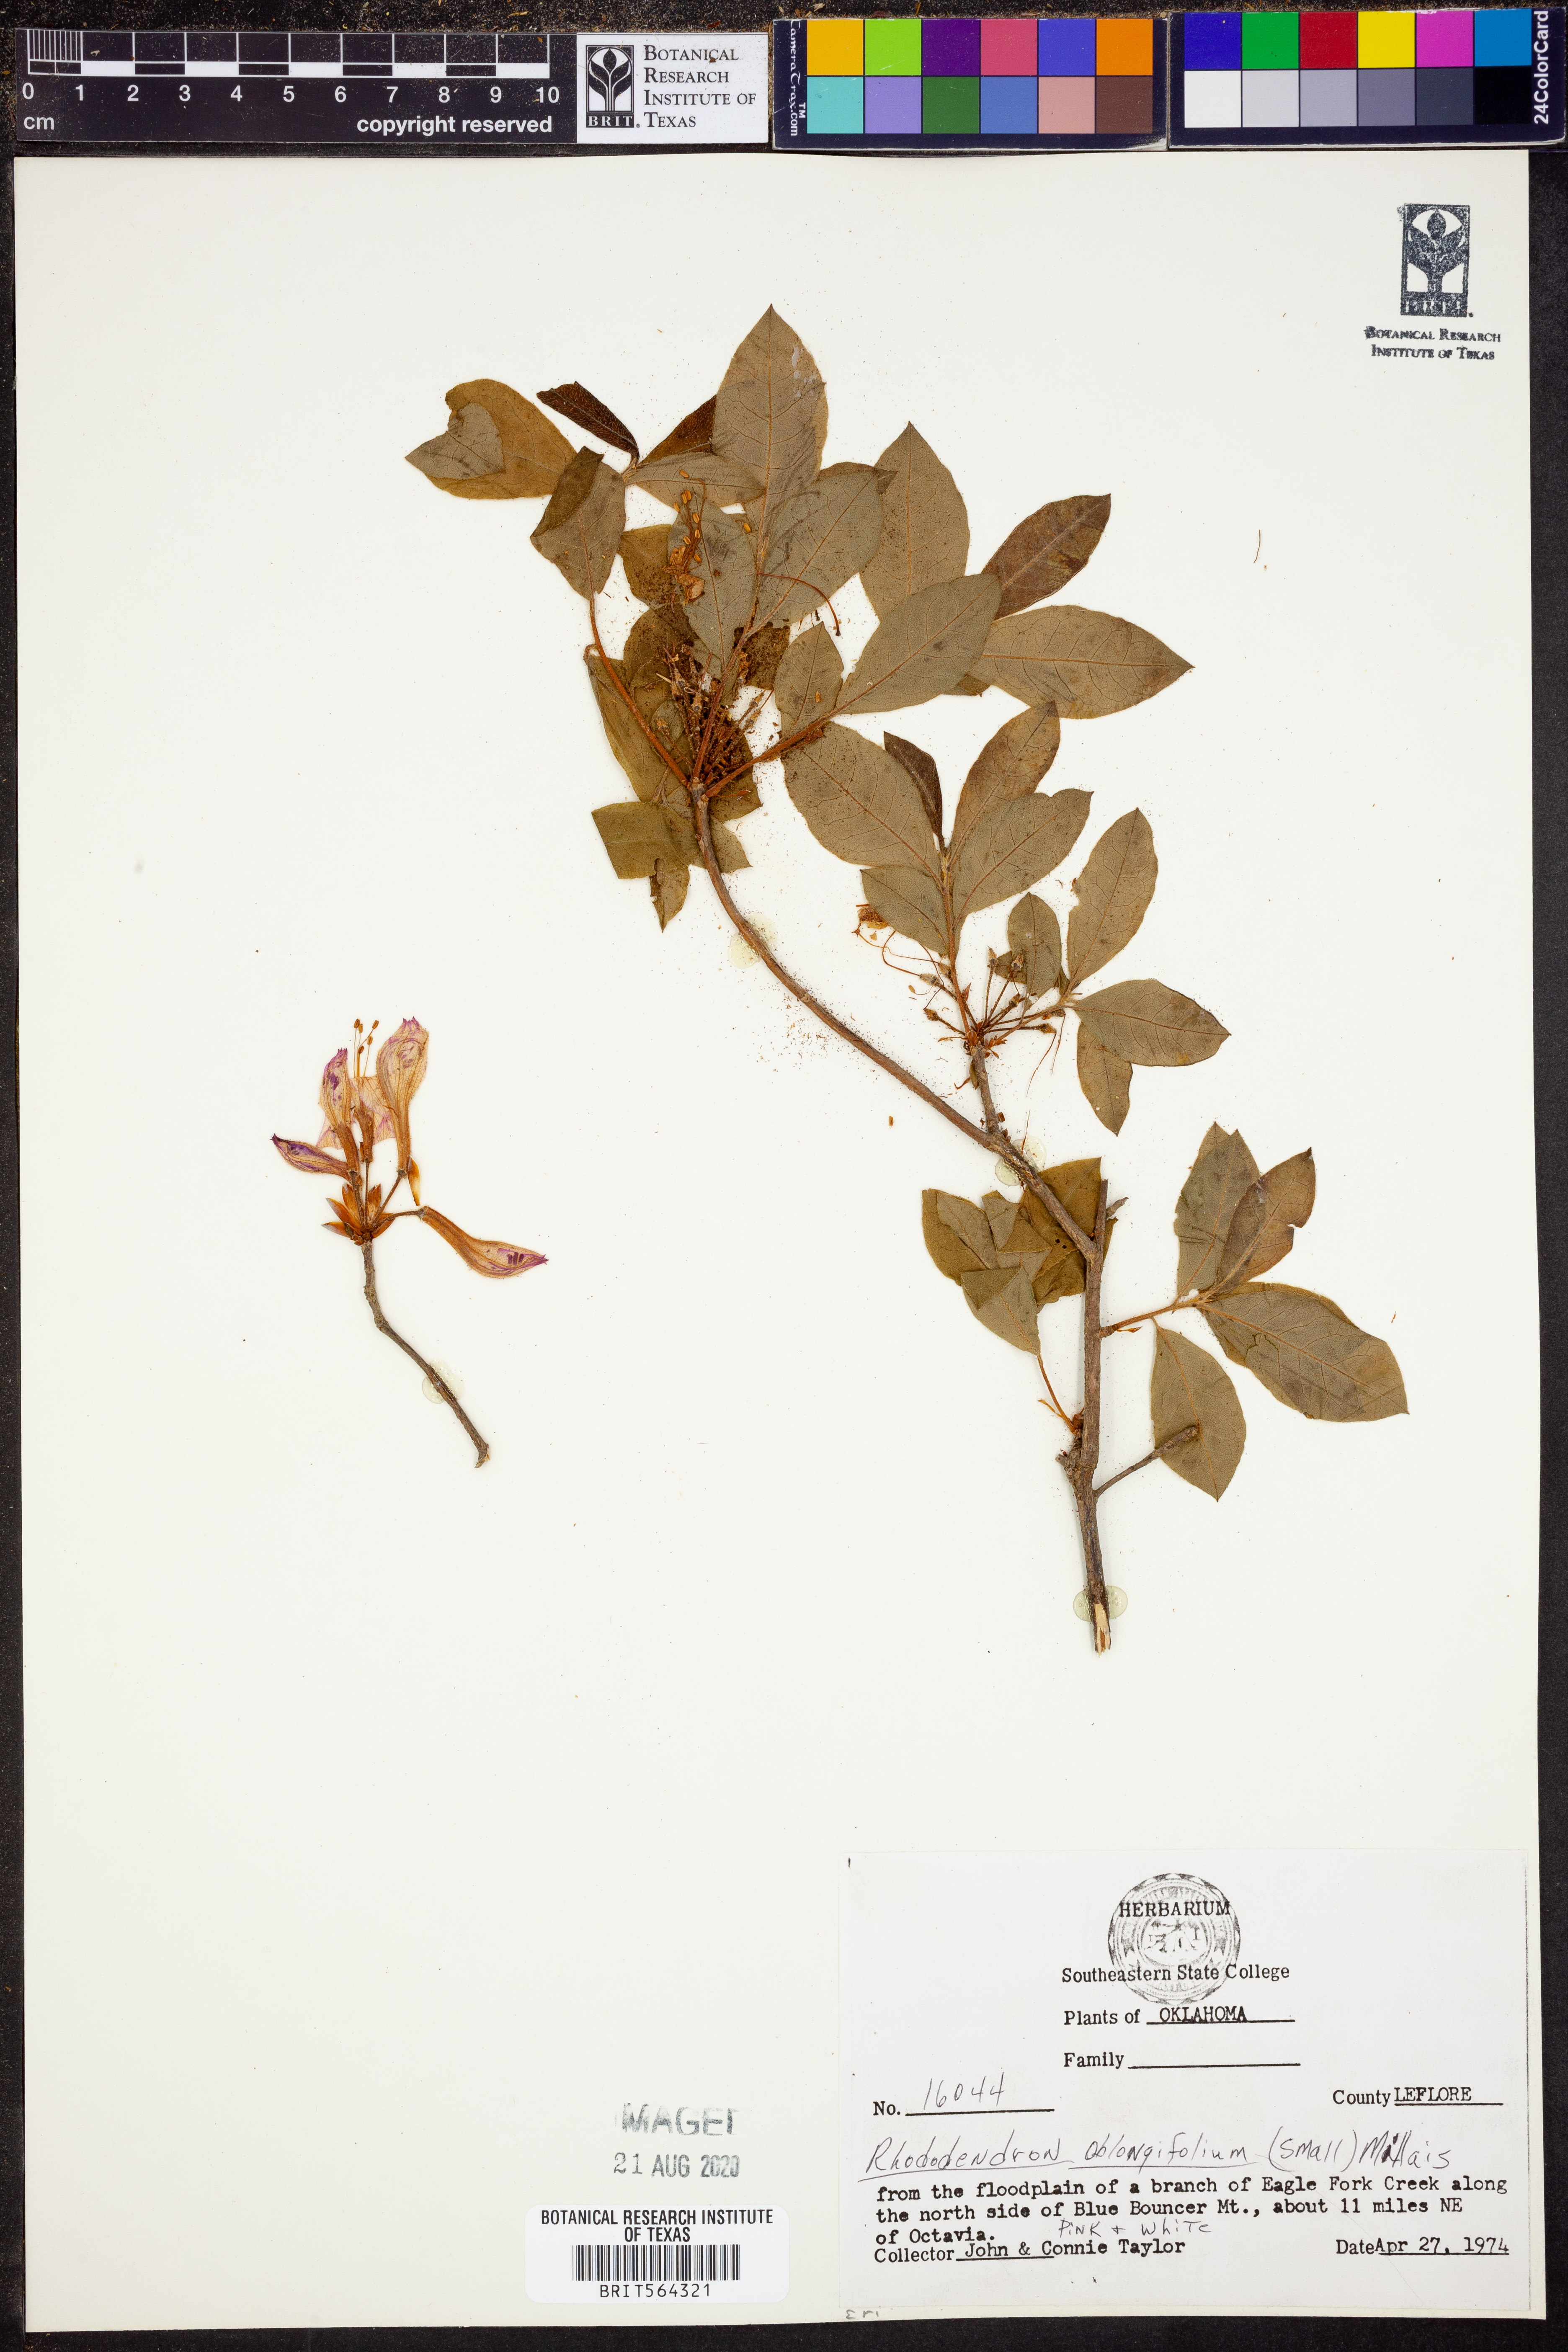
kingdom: Plantae
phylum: Tracheophyta
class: Magnoliopsida
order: Ericales
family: Ericaceae
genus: Rhododendron
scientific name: Rhododendron viscosum
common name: Clammy azalea
